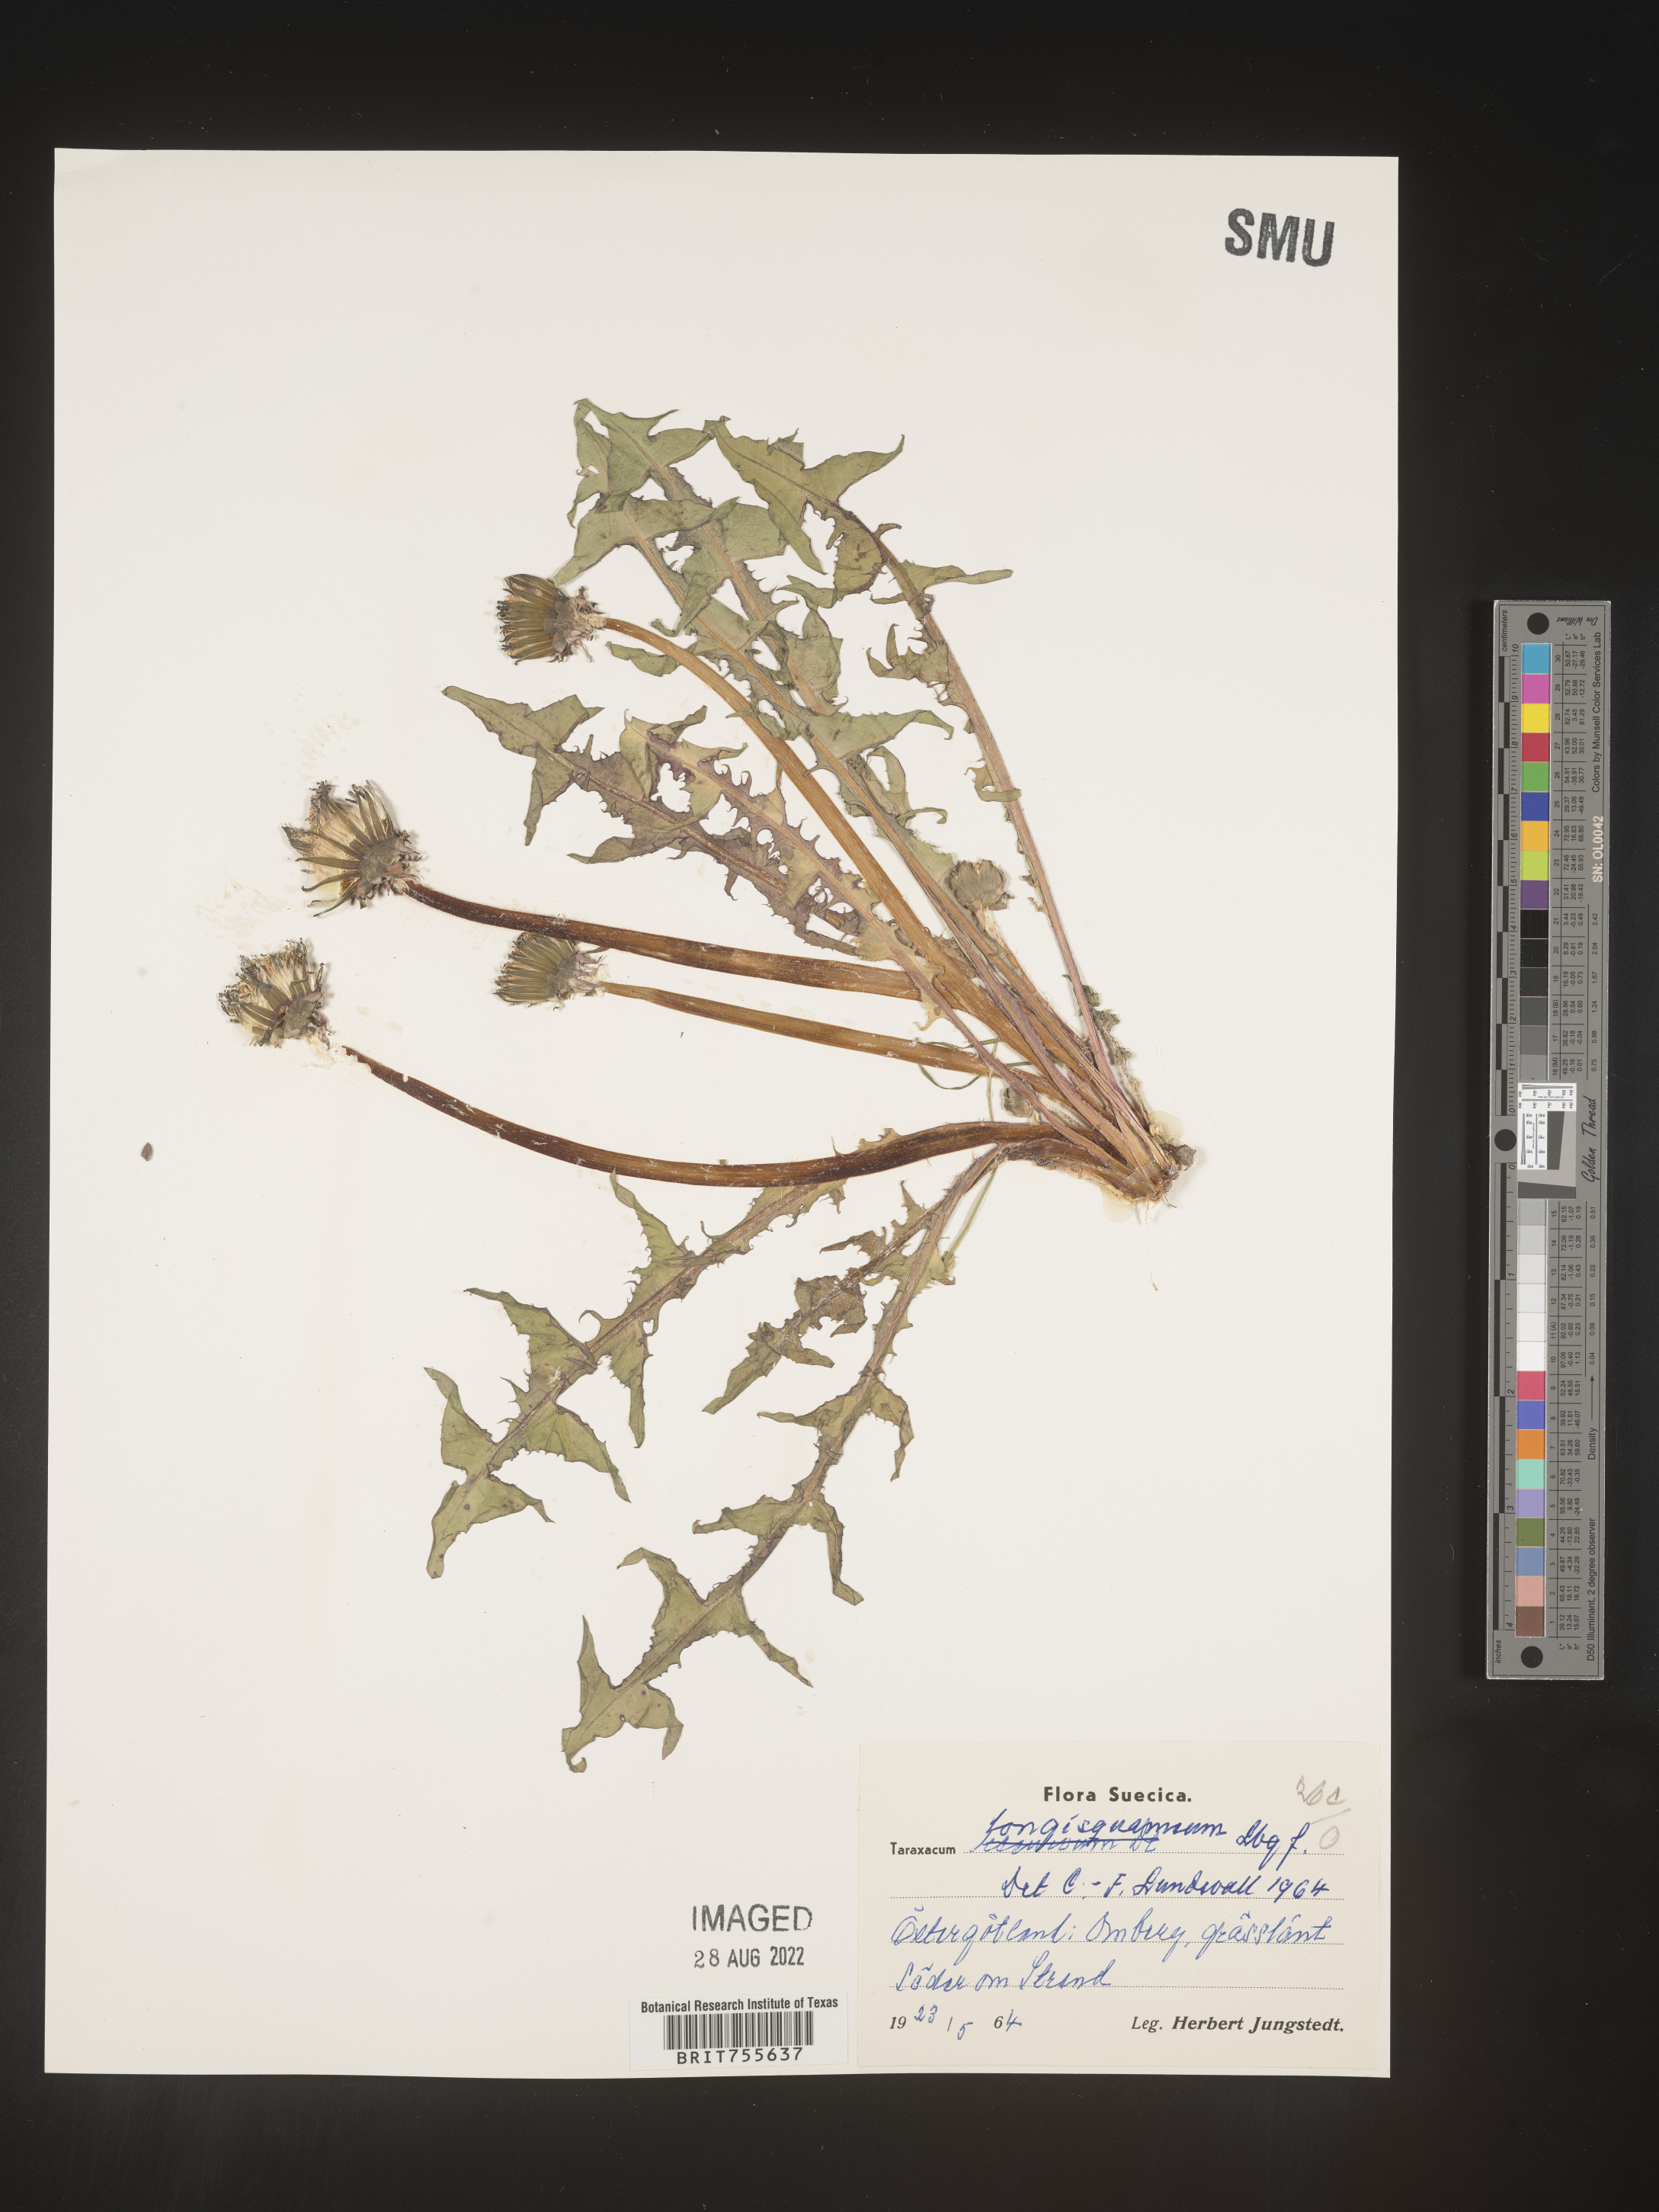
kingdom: Plantae
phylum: Tracheophyta
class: Magnoliopsida
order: Asterales
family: Asteraceae
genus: Taraxacum
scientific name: Taraxacum
